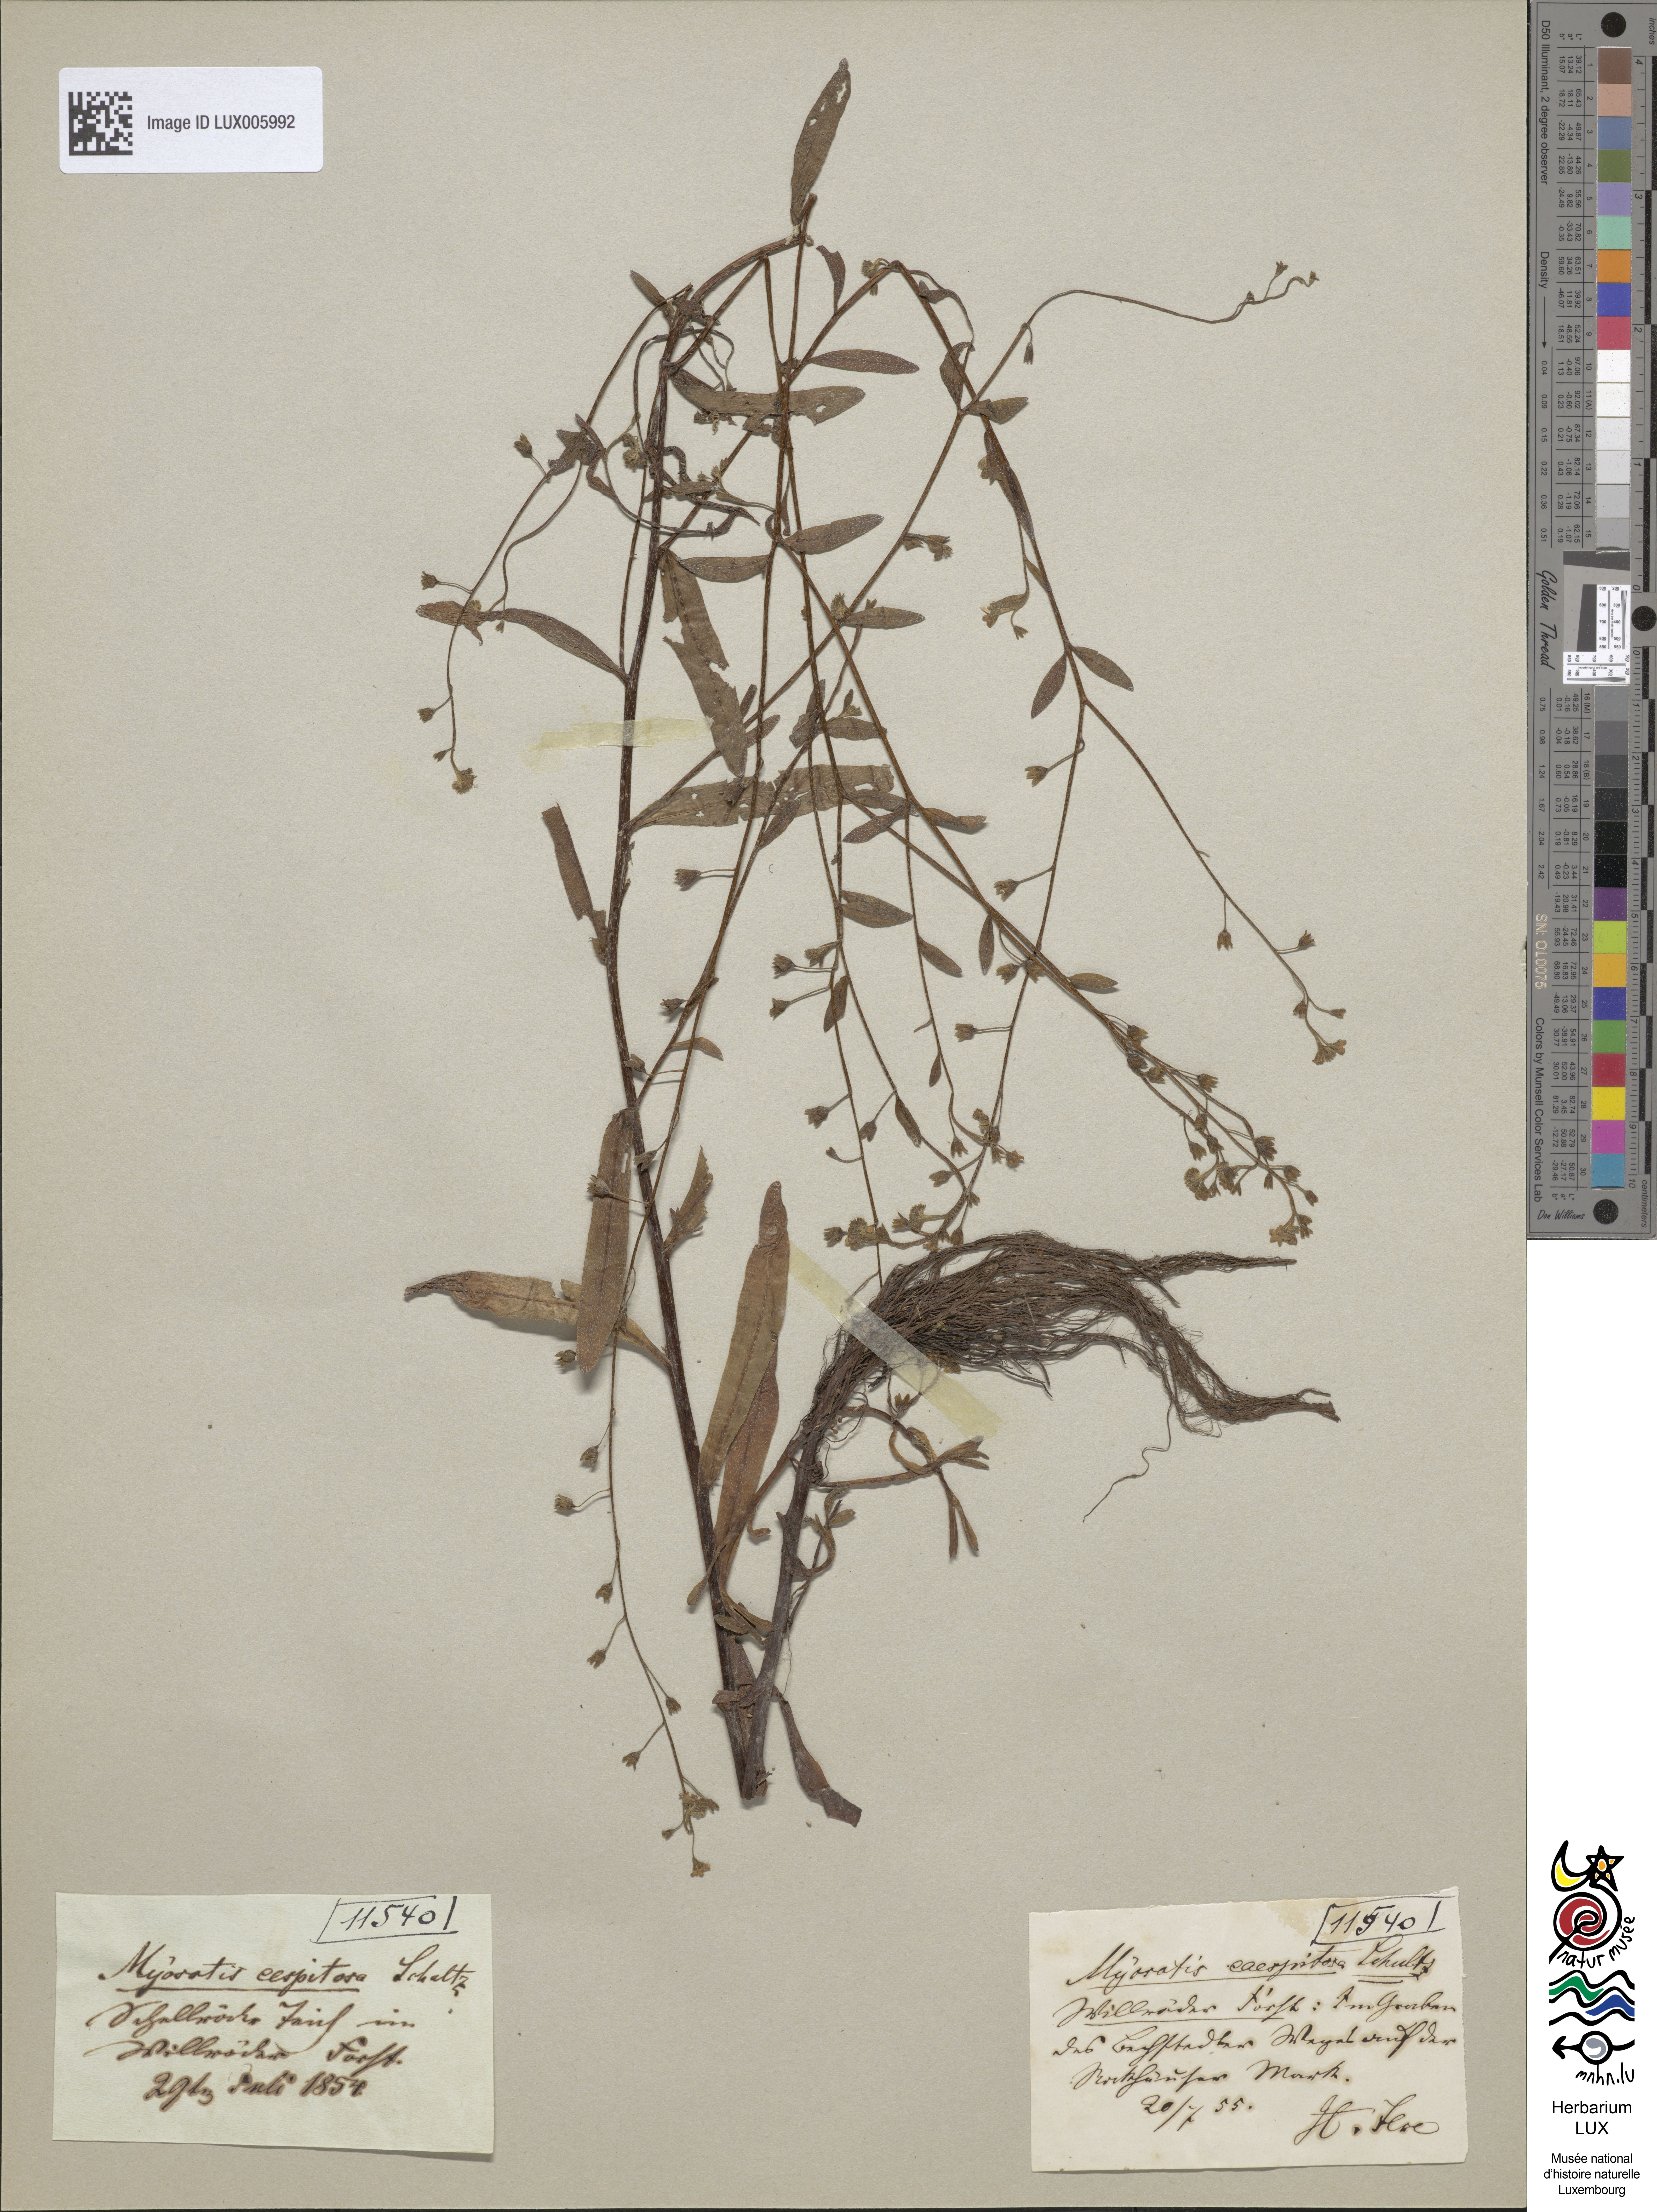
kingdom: Plantae
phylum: Tracheophyta
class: Magnoliopsida
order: Boraginales
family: Boraginaceae
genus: Myosotis
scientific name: Myosotis laxa
